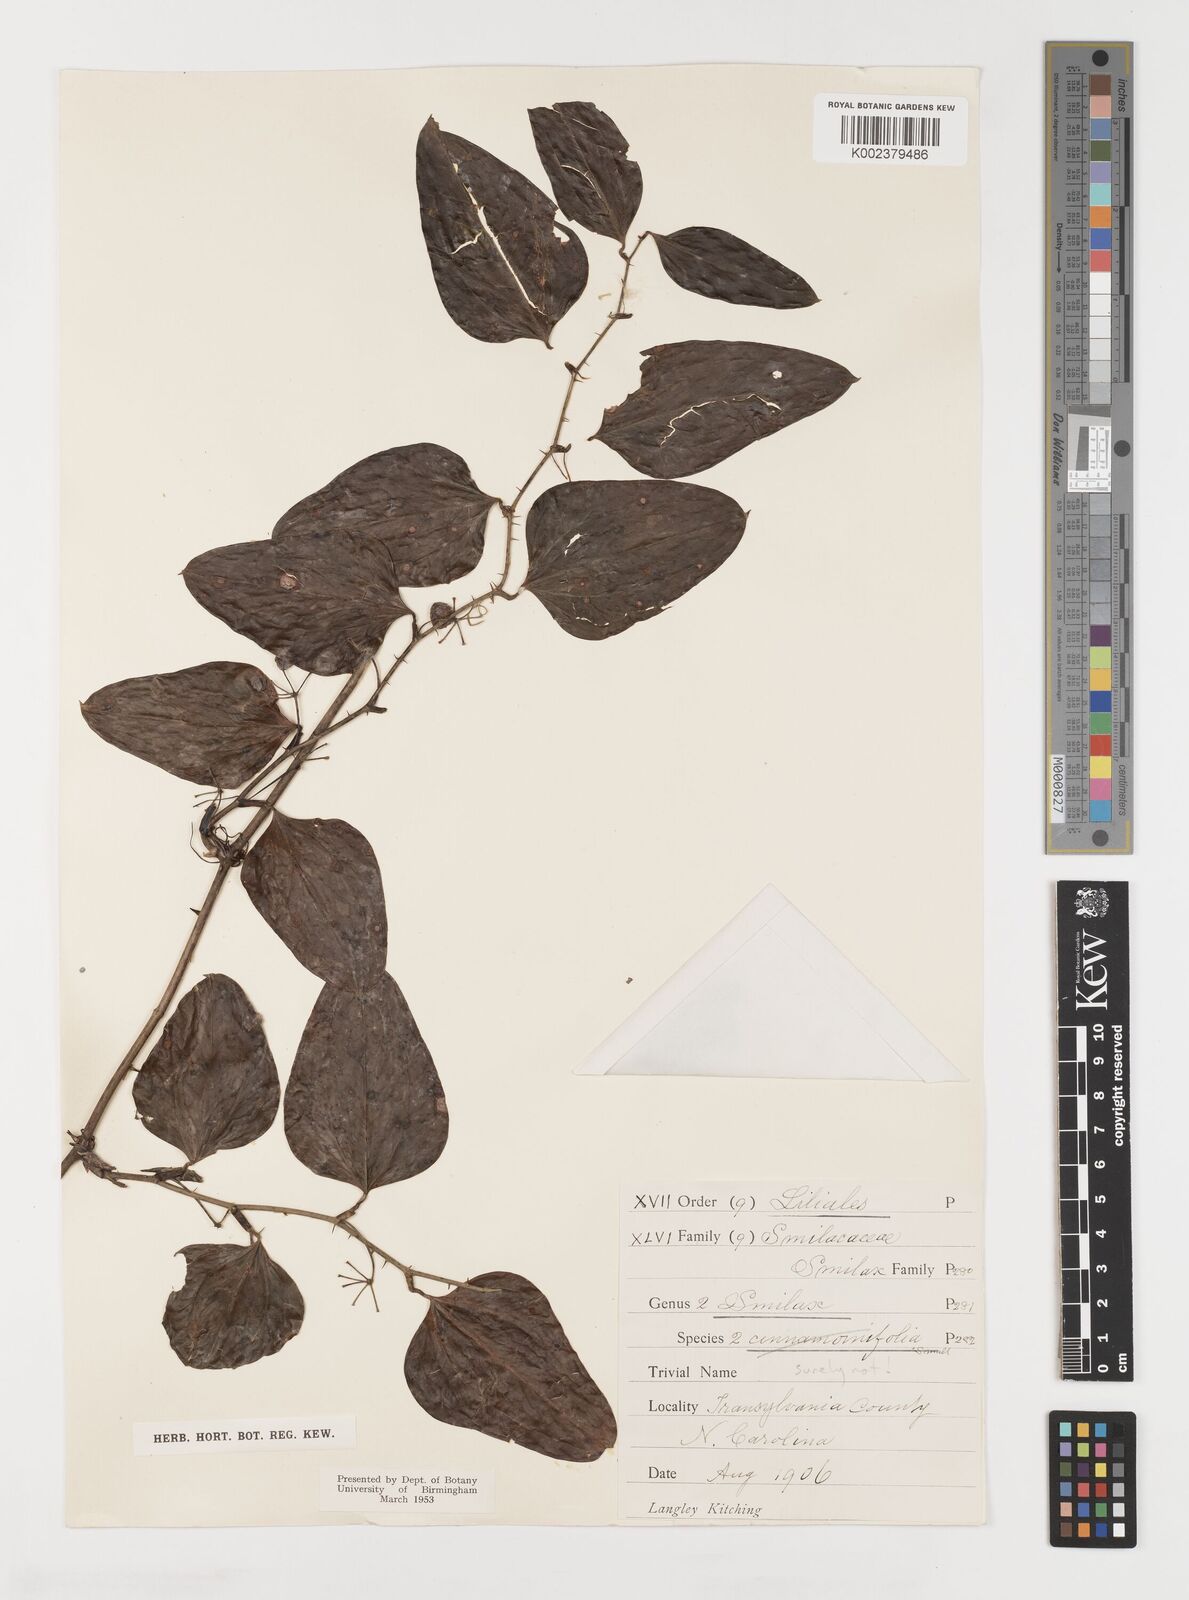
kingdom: Plantae
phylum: Tracheophyta
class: Liliopsida
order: Liliales
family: Smilacaceae
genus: Smilax
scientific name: Smilax
